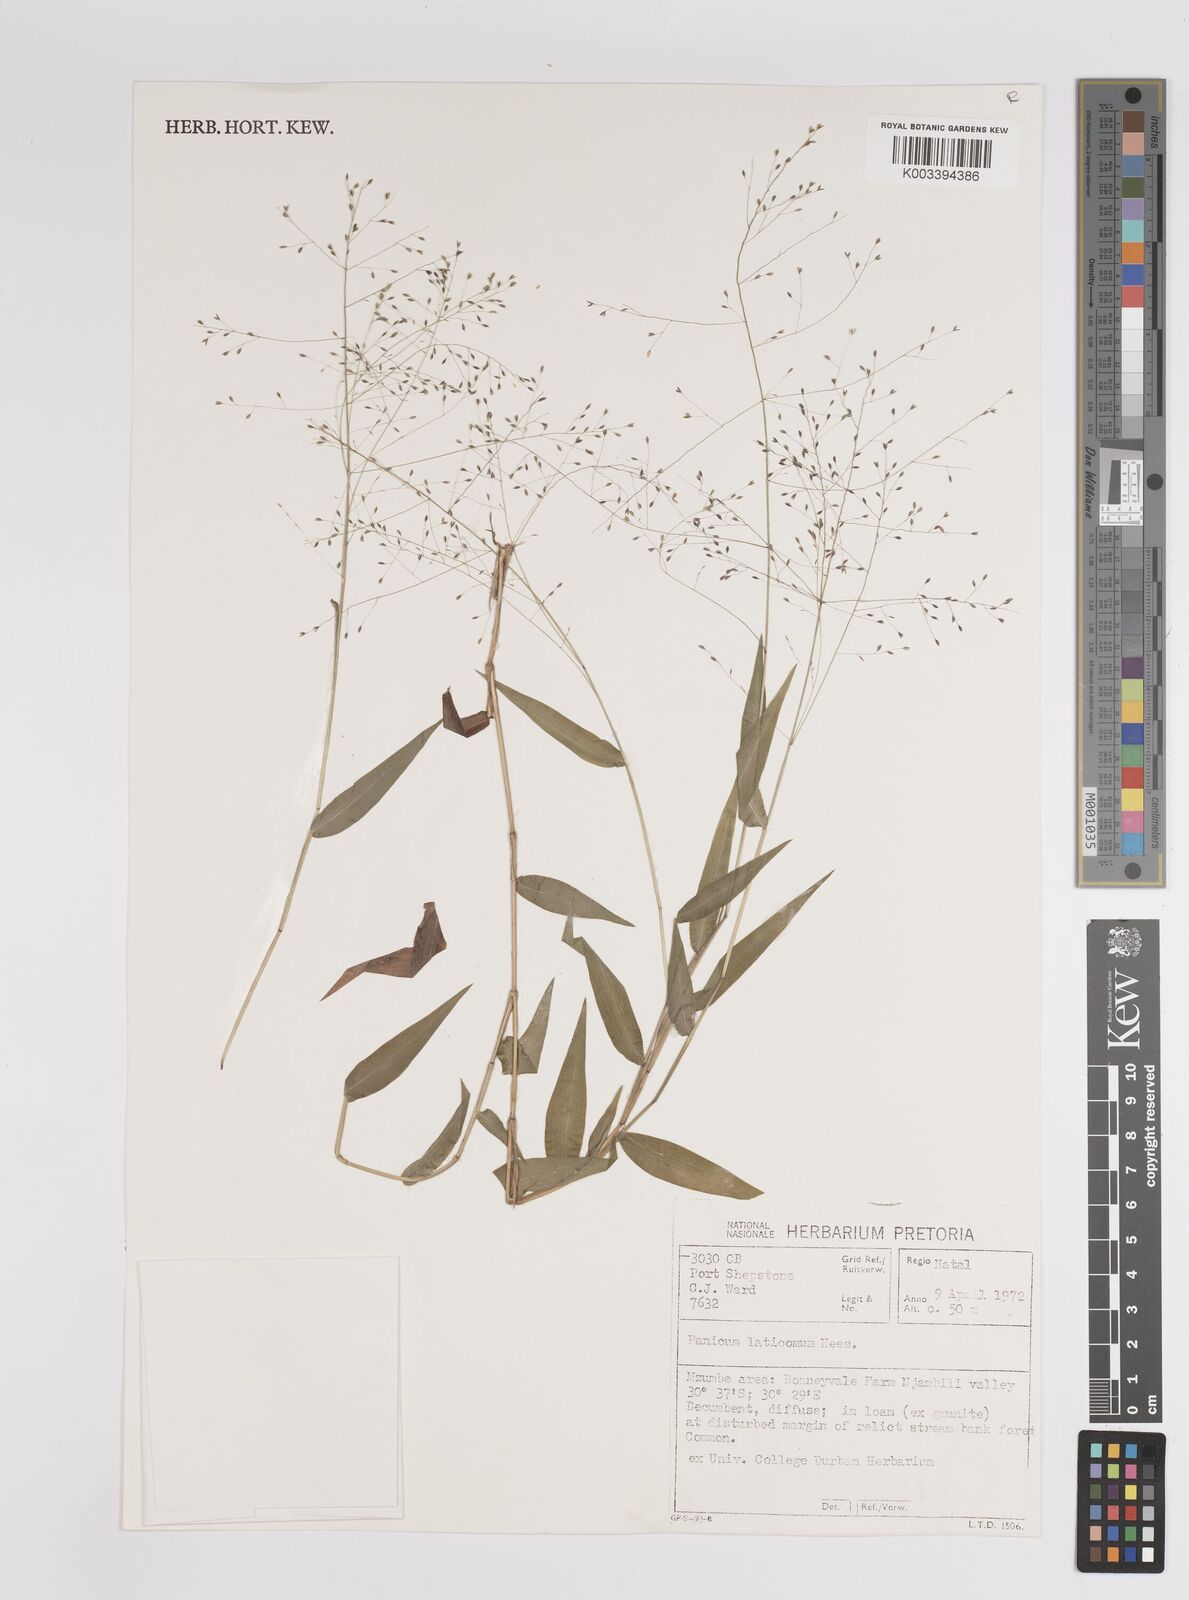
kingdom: Plantae
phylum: Tracheophyta
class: Liliopsida
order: Poales
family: Poaceae
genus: Panicum
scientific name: Panicum laticomum
